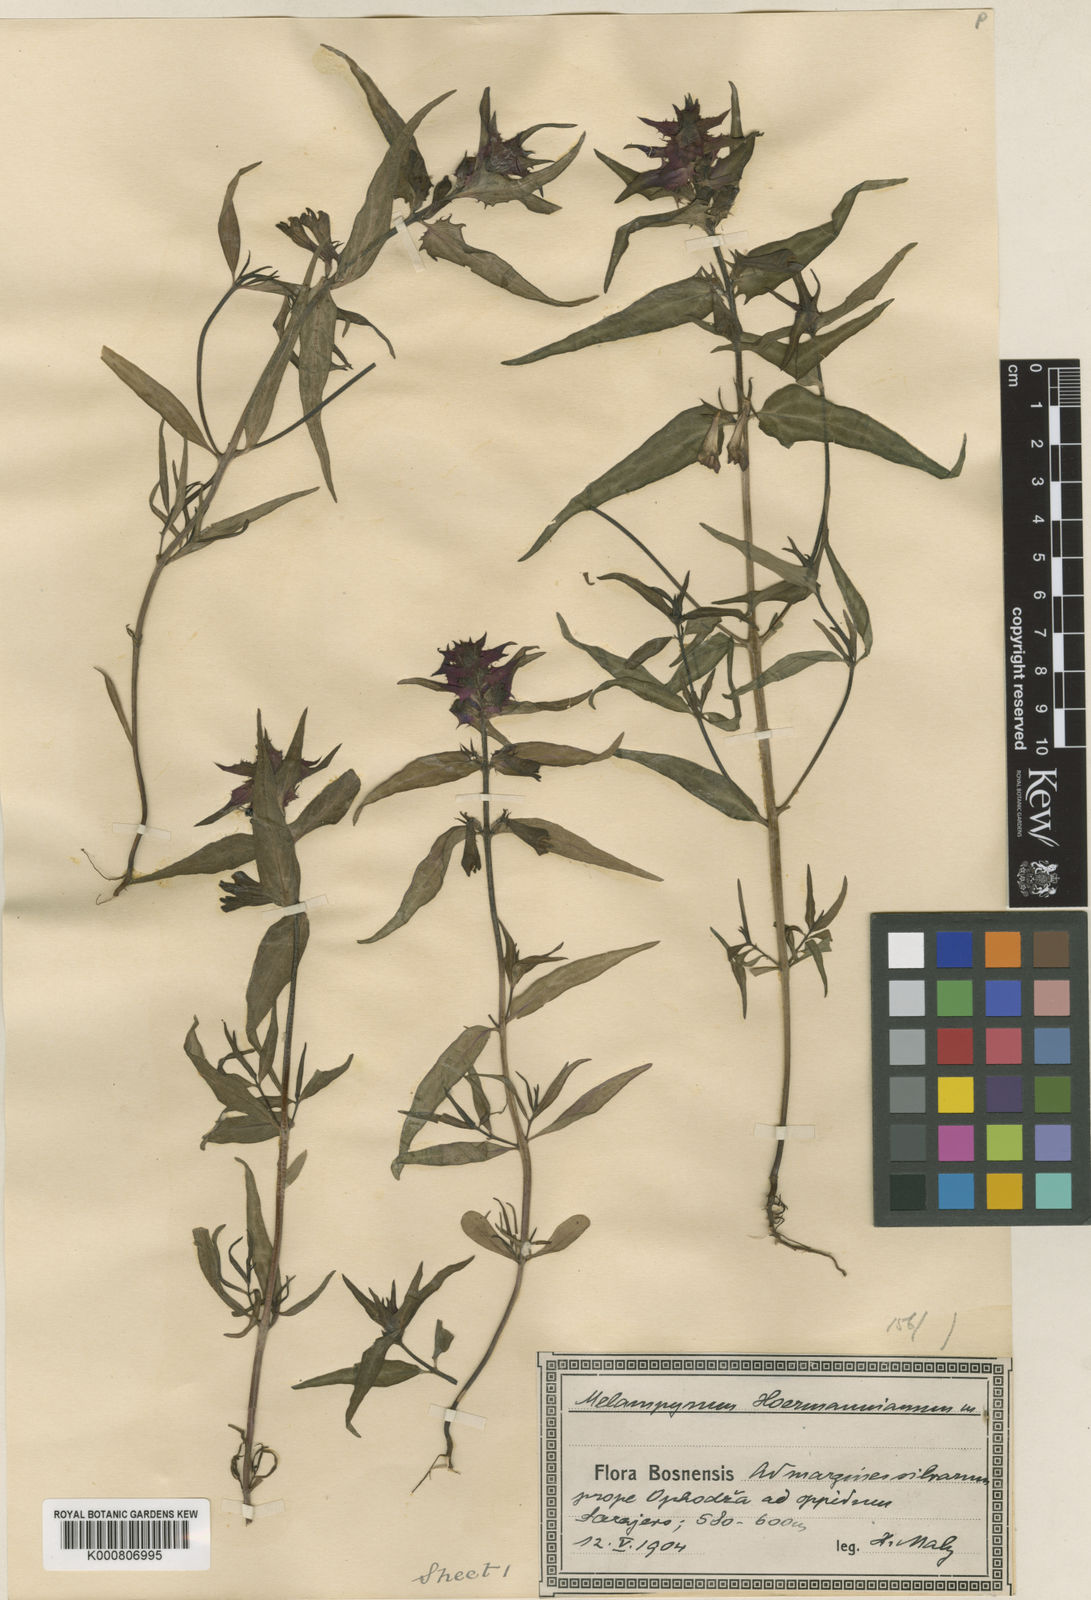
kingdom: Plantae
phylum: Tracheophyta
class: Magnoliopsida
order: Lamiales
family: Orobanchaceae
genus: Melampyrum
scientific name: Melampyrum hoermannianum
